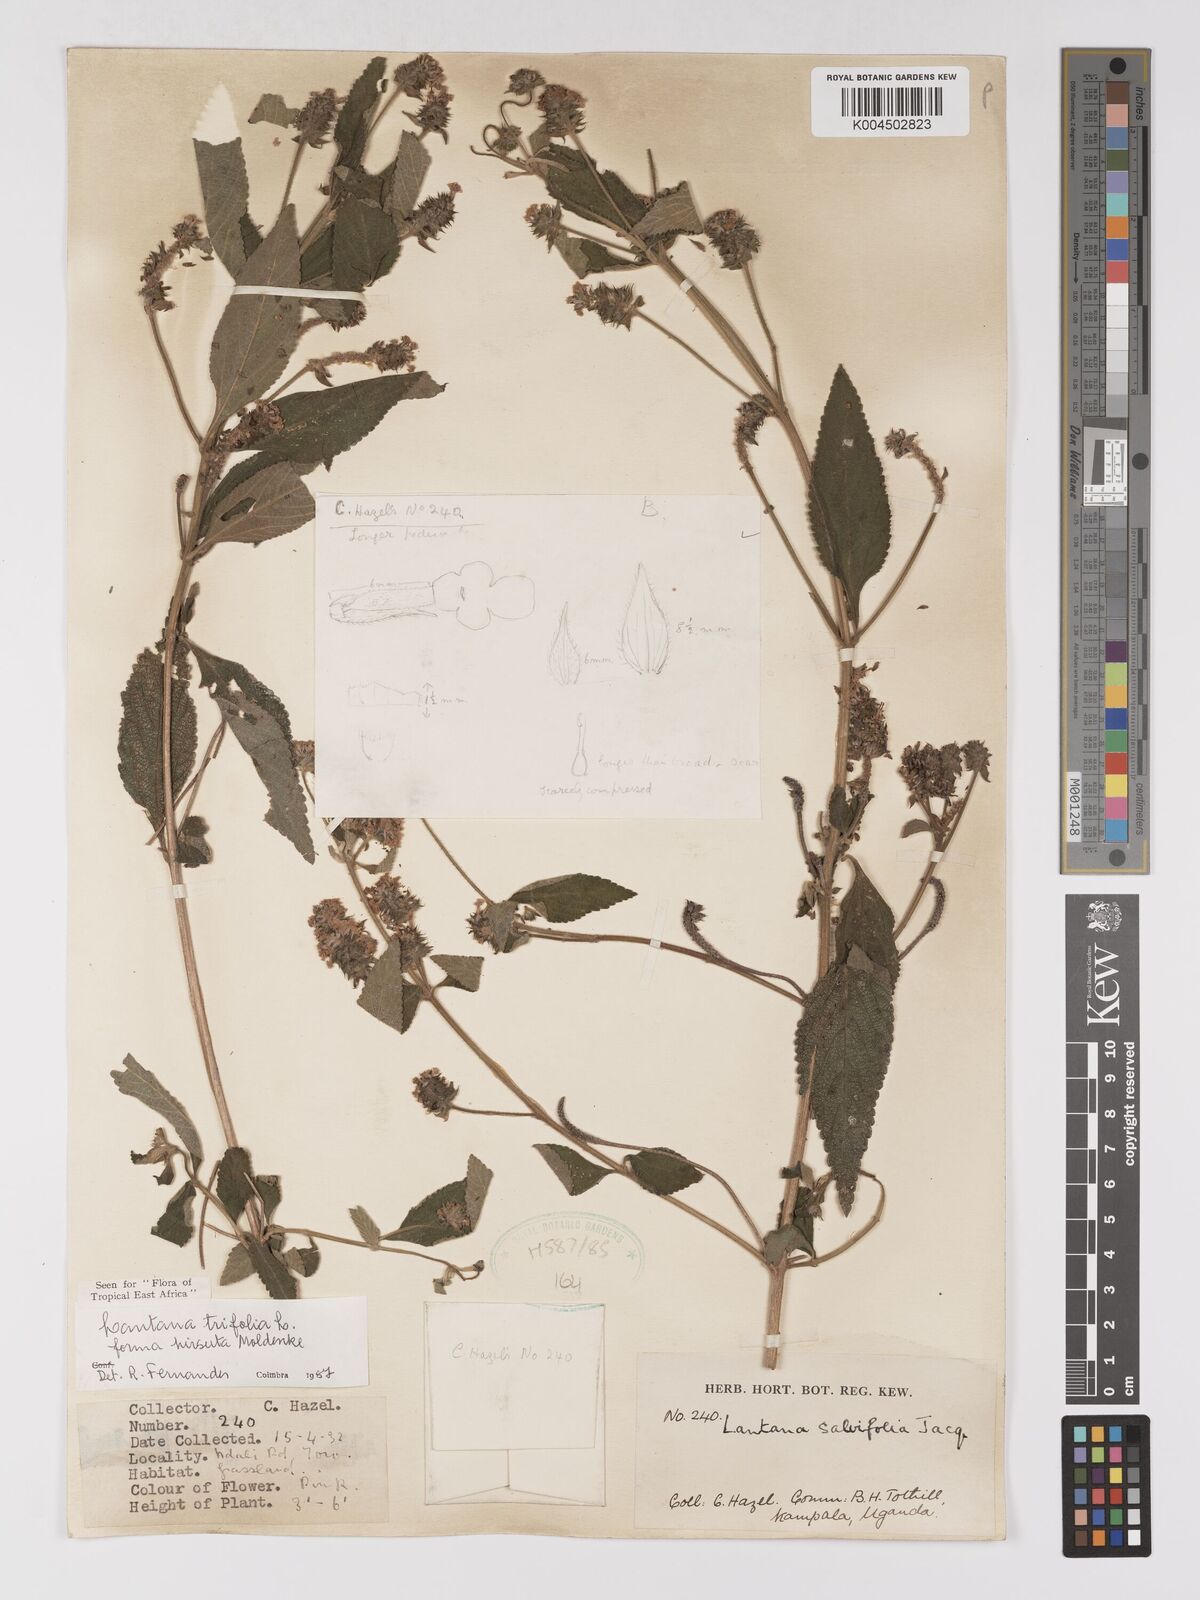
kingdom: Plantae
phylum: Tracheophyta
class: Magnoliopsida
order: Lamiales
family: Verbenaceae
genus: Lantana
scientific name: Lantana trifolia
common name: Sweet-sage
